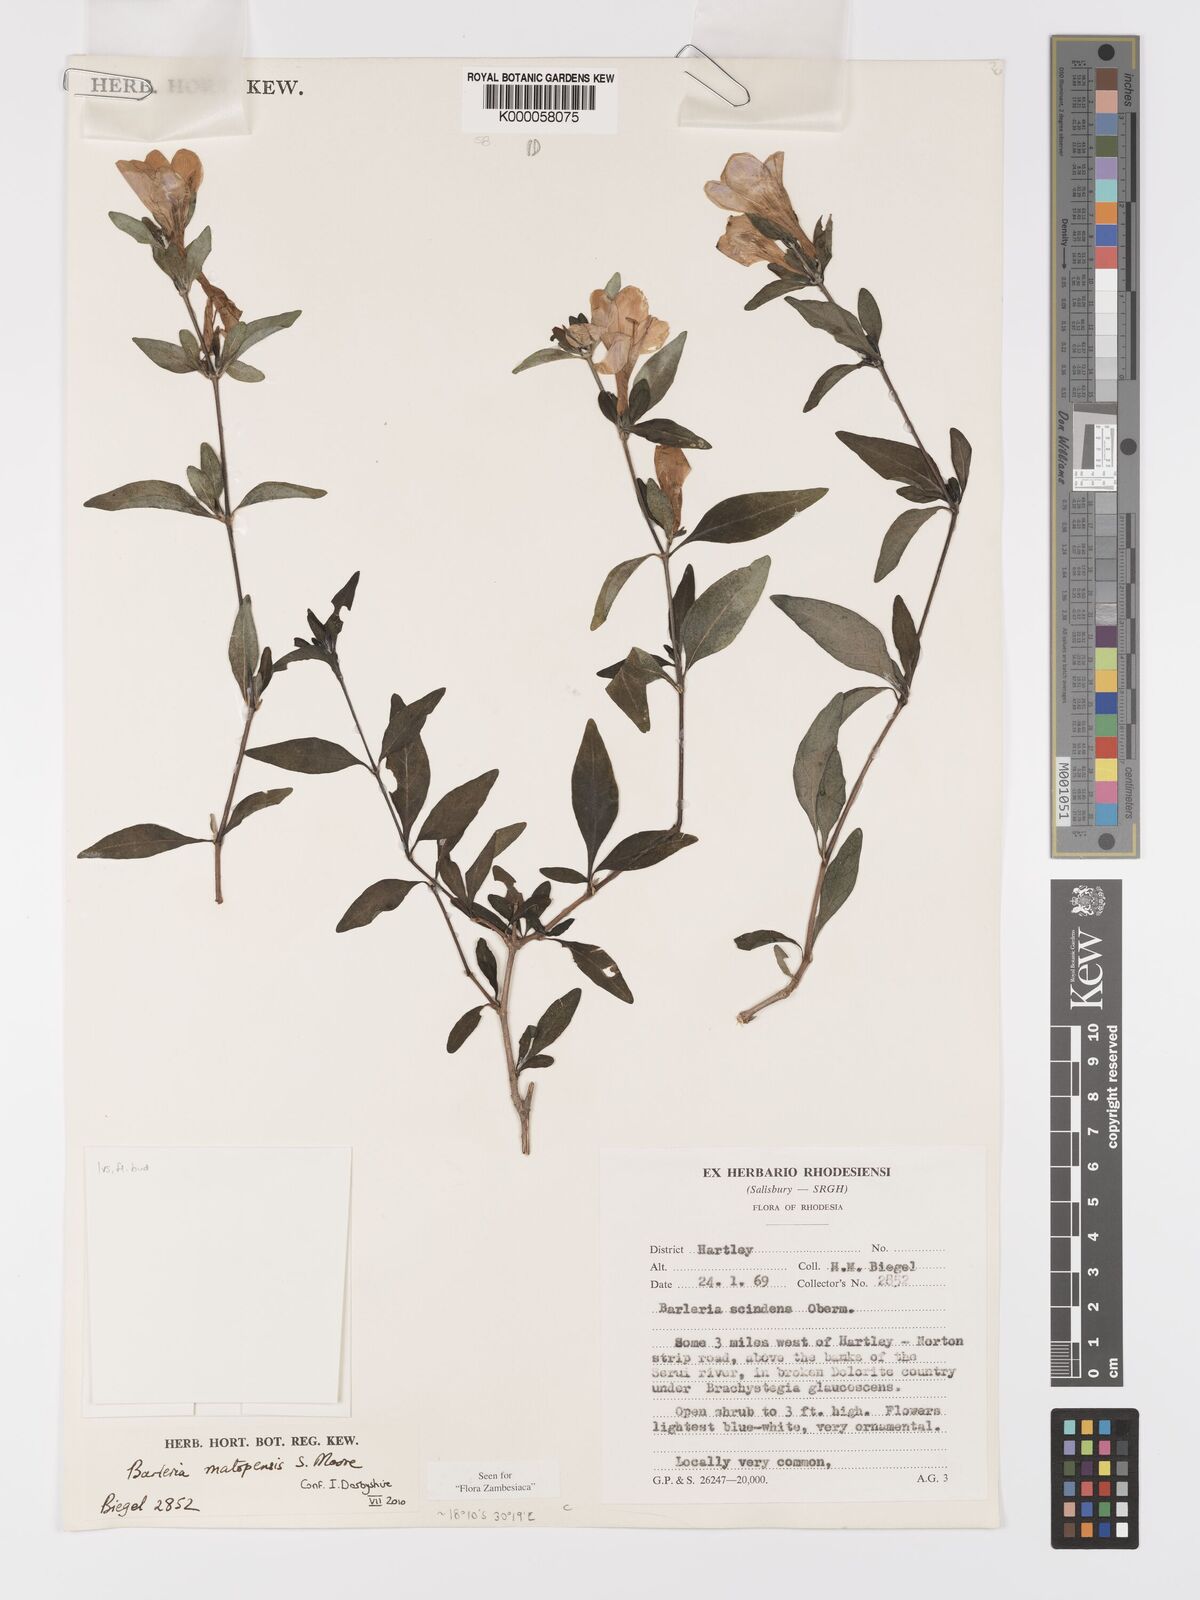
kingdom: Plantae
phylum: Tracheophyta
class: Magnoliopsida
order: Lamiales
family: Acanthaceae
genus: Barleria
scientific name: Barleria matopensis
